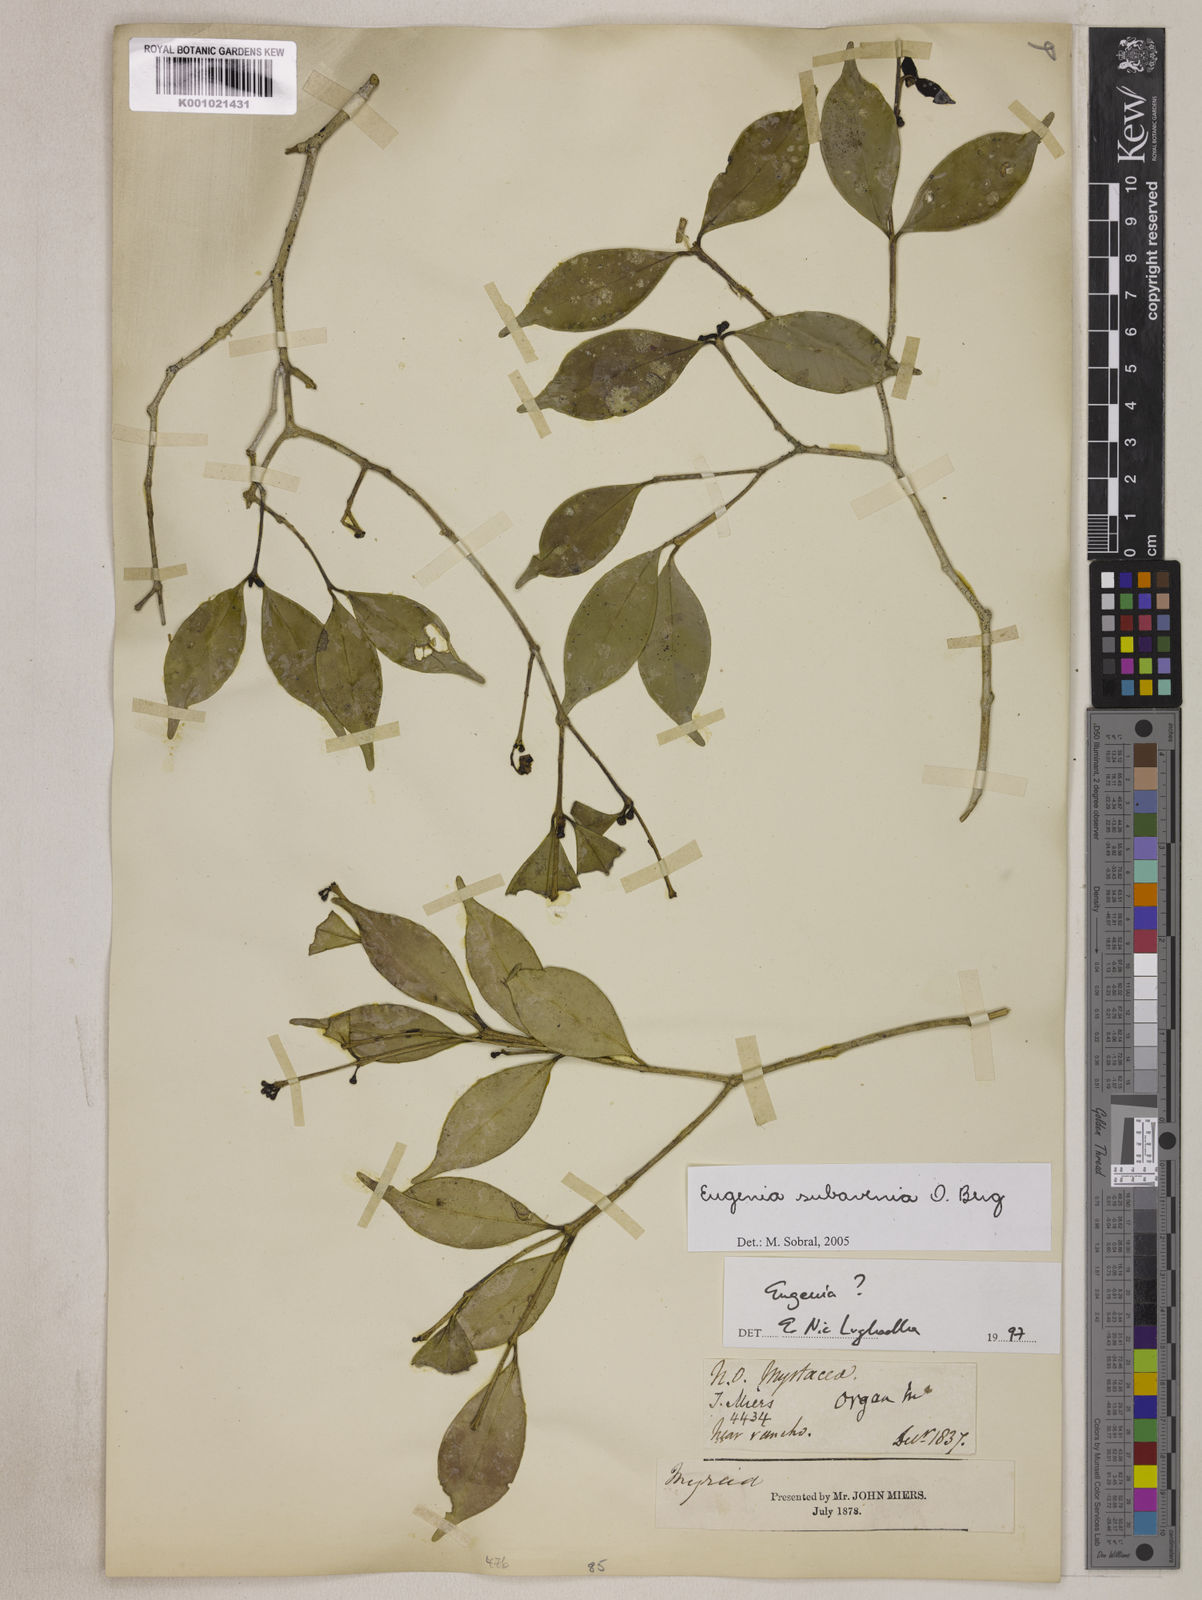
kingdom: Plantae
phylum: Tracheophyta
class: Magnoliopsida
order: Myrtales
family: Myrtaceae
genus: Eugenia
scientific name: Eugenia subavenia
